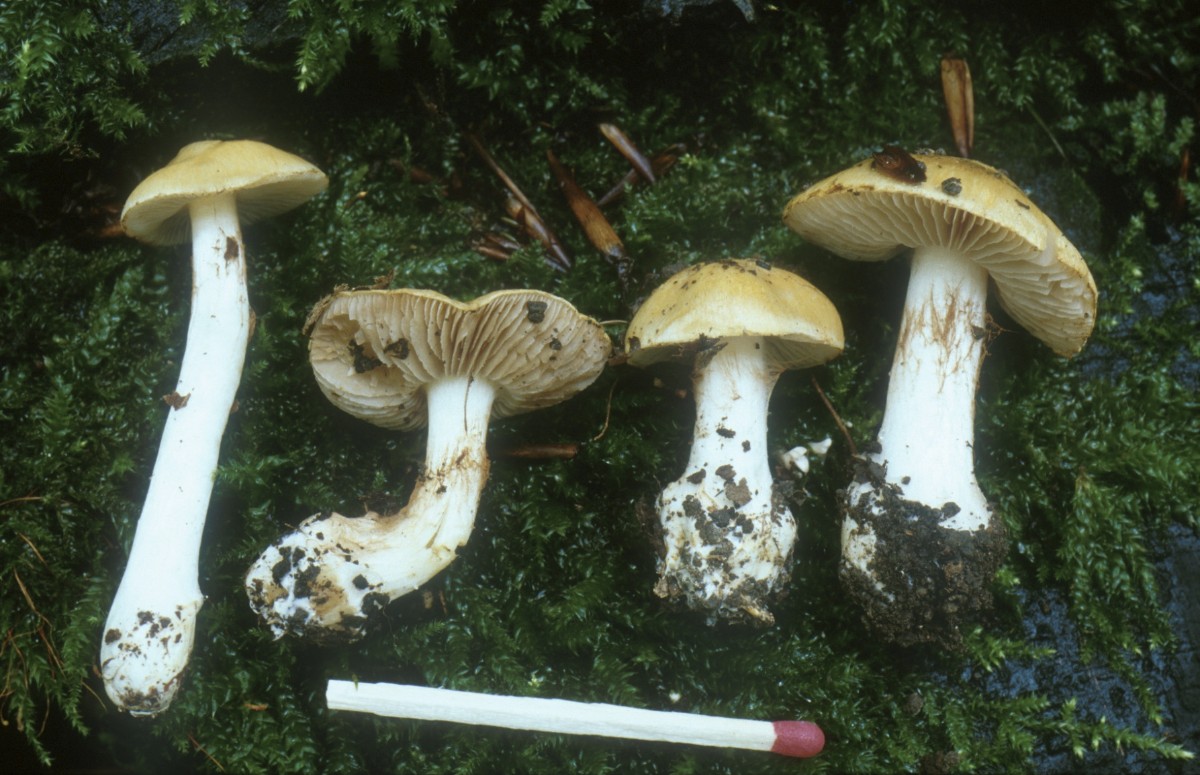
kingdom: Fungi
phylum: Basidiomycota
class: Agaricomycetes
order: Agaricales
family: Cortinariaceae
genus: Cortinarius
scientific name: Cortinarius gracilior
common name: gracil slørhat
